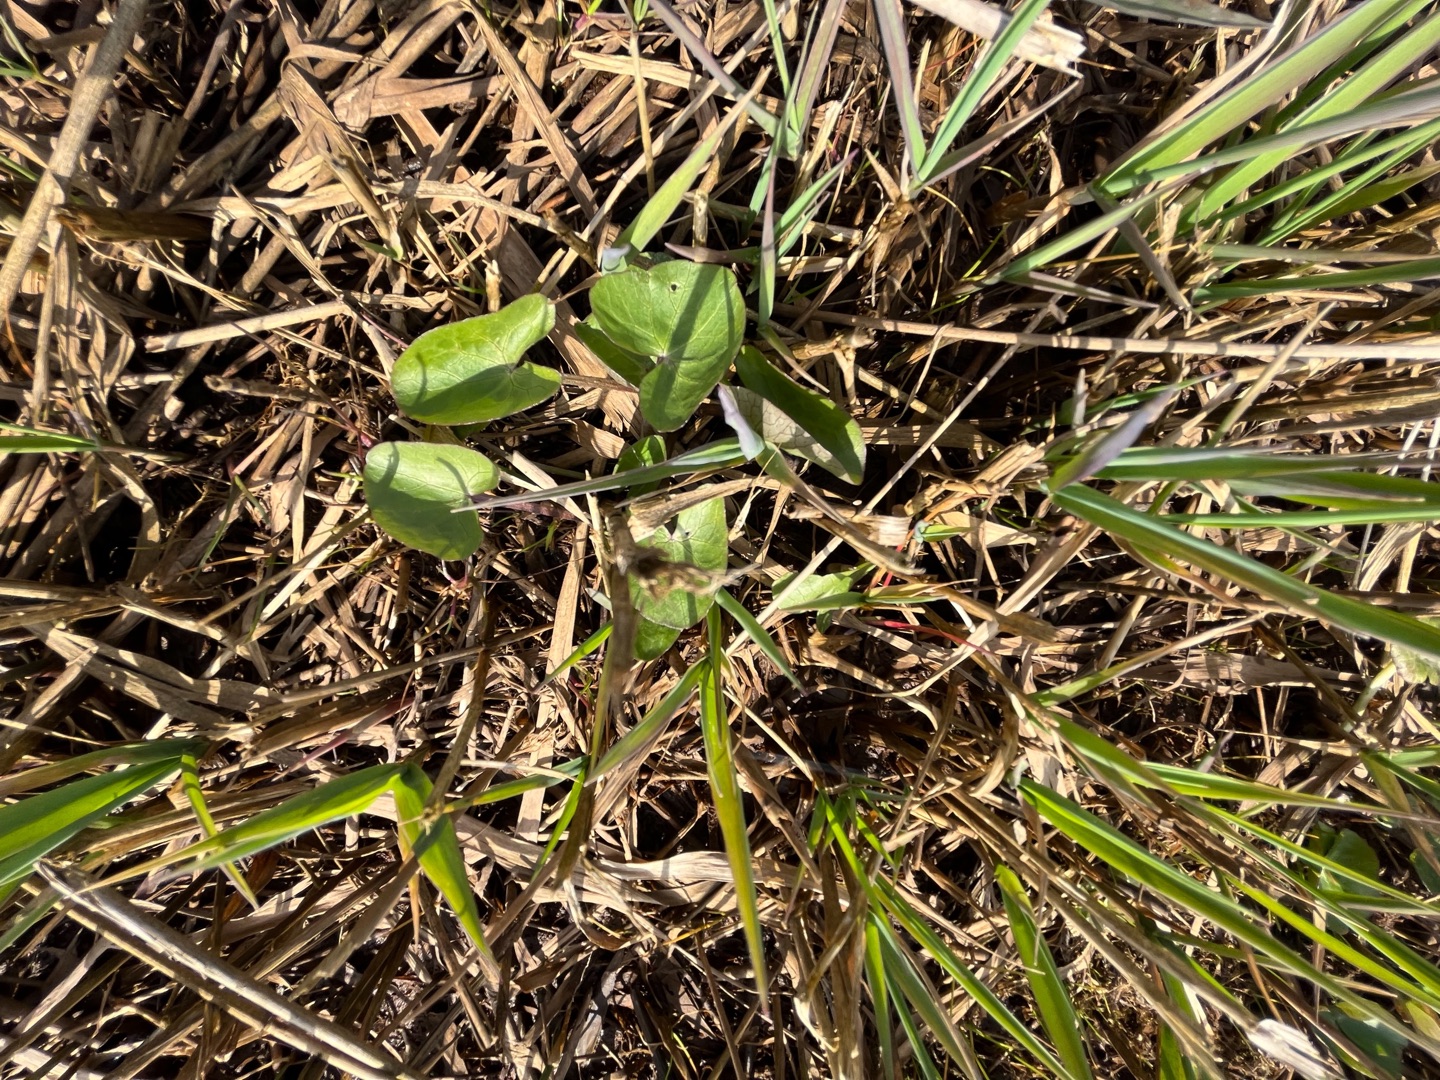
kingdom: Plantae
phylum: Tracheophyta
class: Magnoliopsida
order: Ranunculales
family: Ranunculaceae
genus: Caltha
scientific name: Caltha palustris
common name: Eng-kabbeleje
